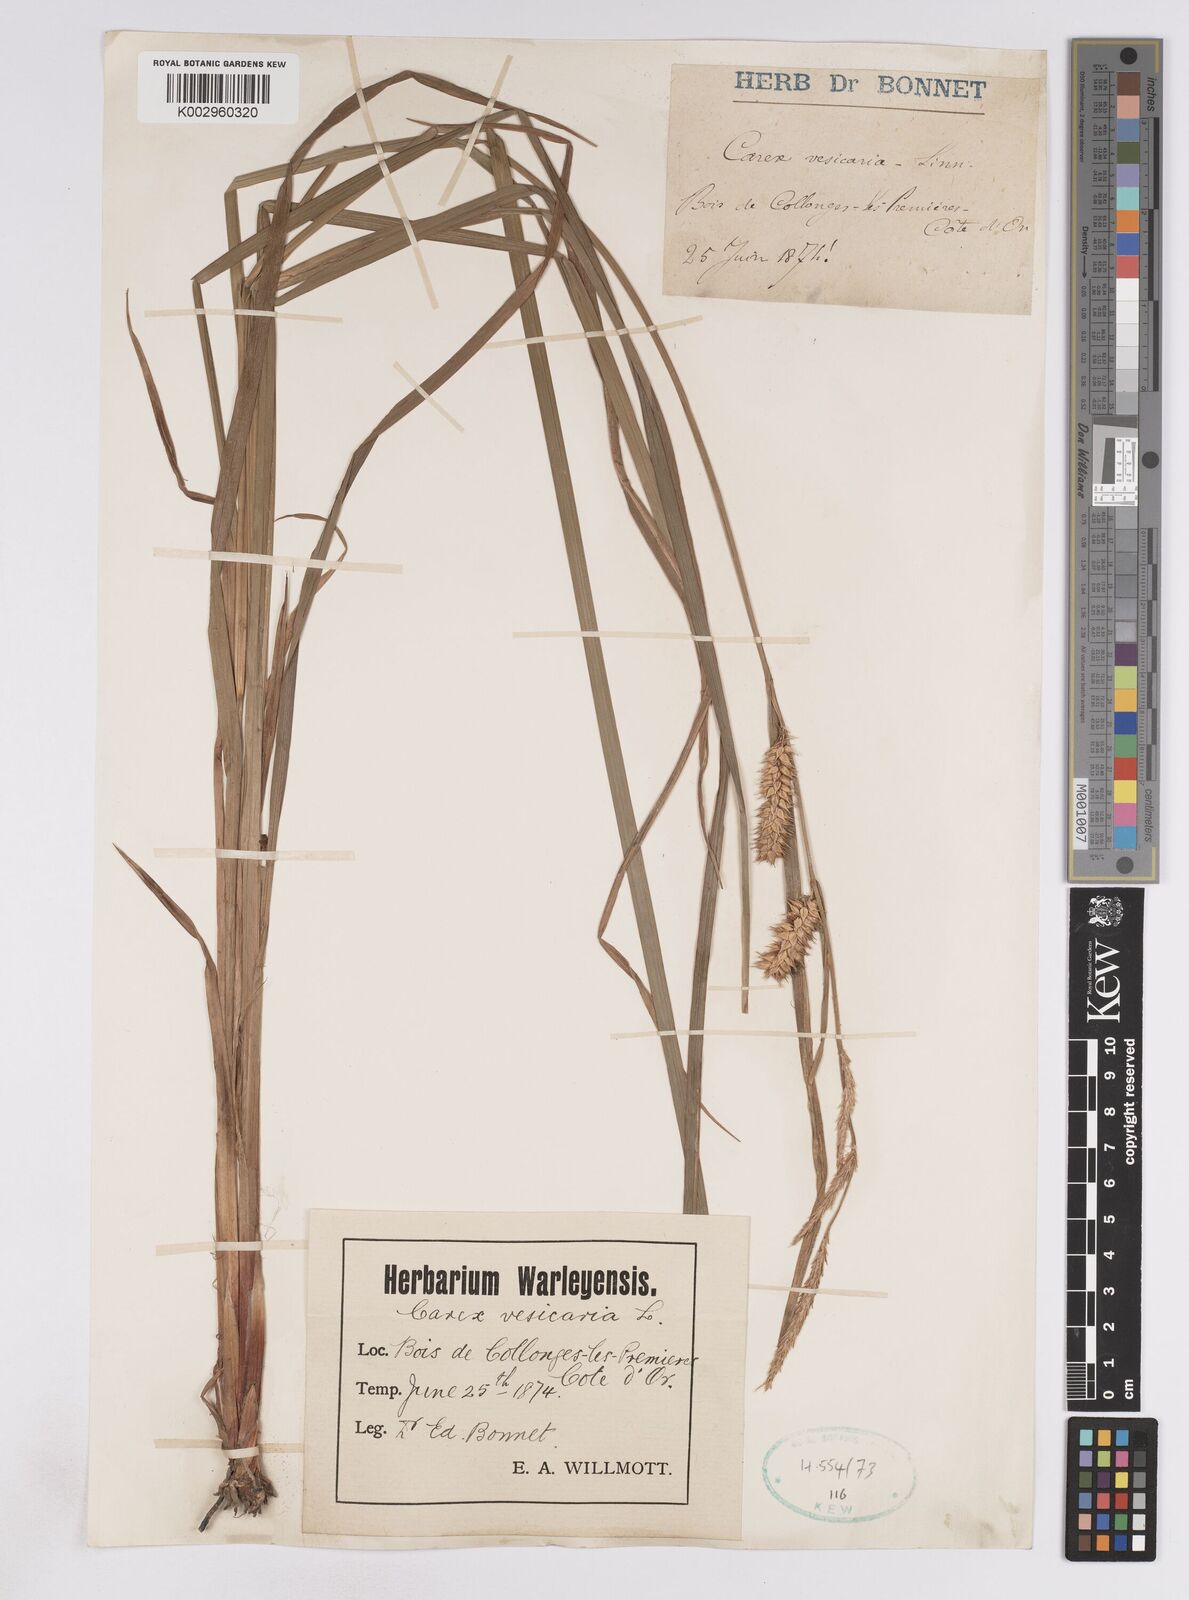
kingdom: Plantae
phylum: Tracheophyta
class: Liliopsida
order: Poales
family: Cyperaceae
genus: Carex
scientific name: Carex vesicaria
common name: Bladder-sedge
